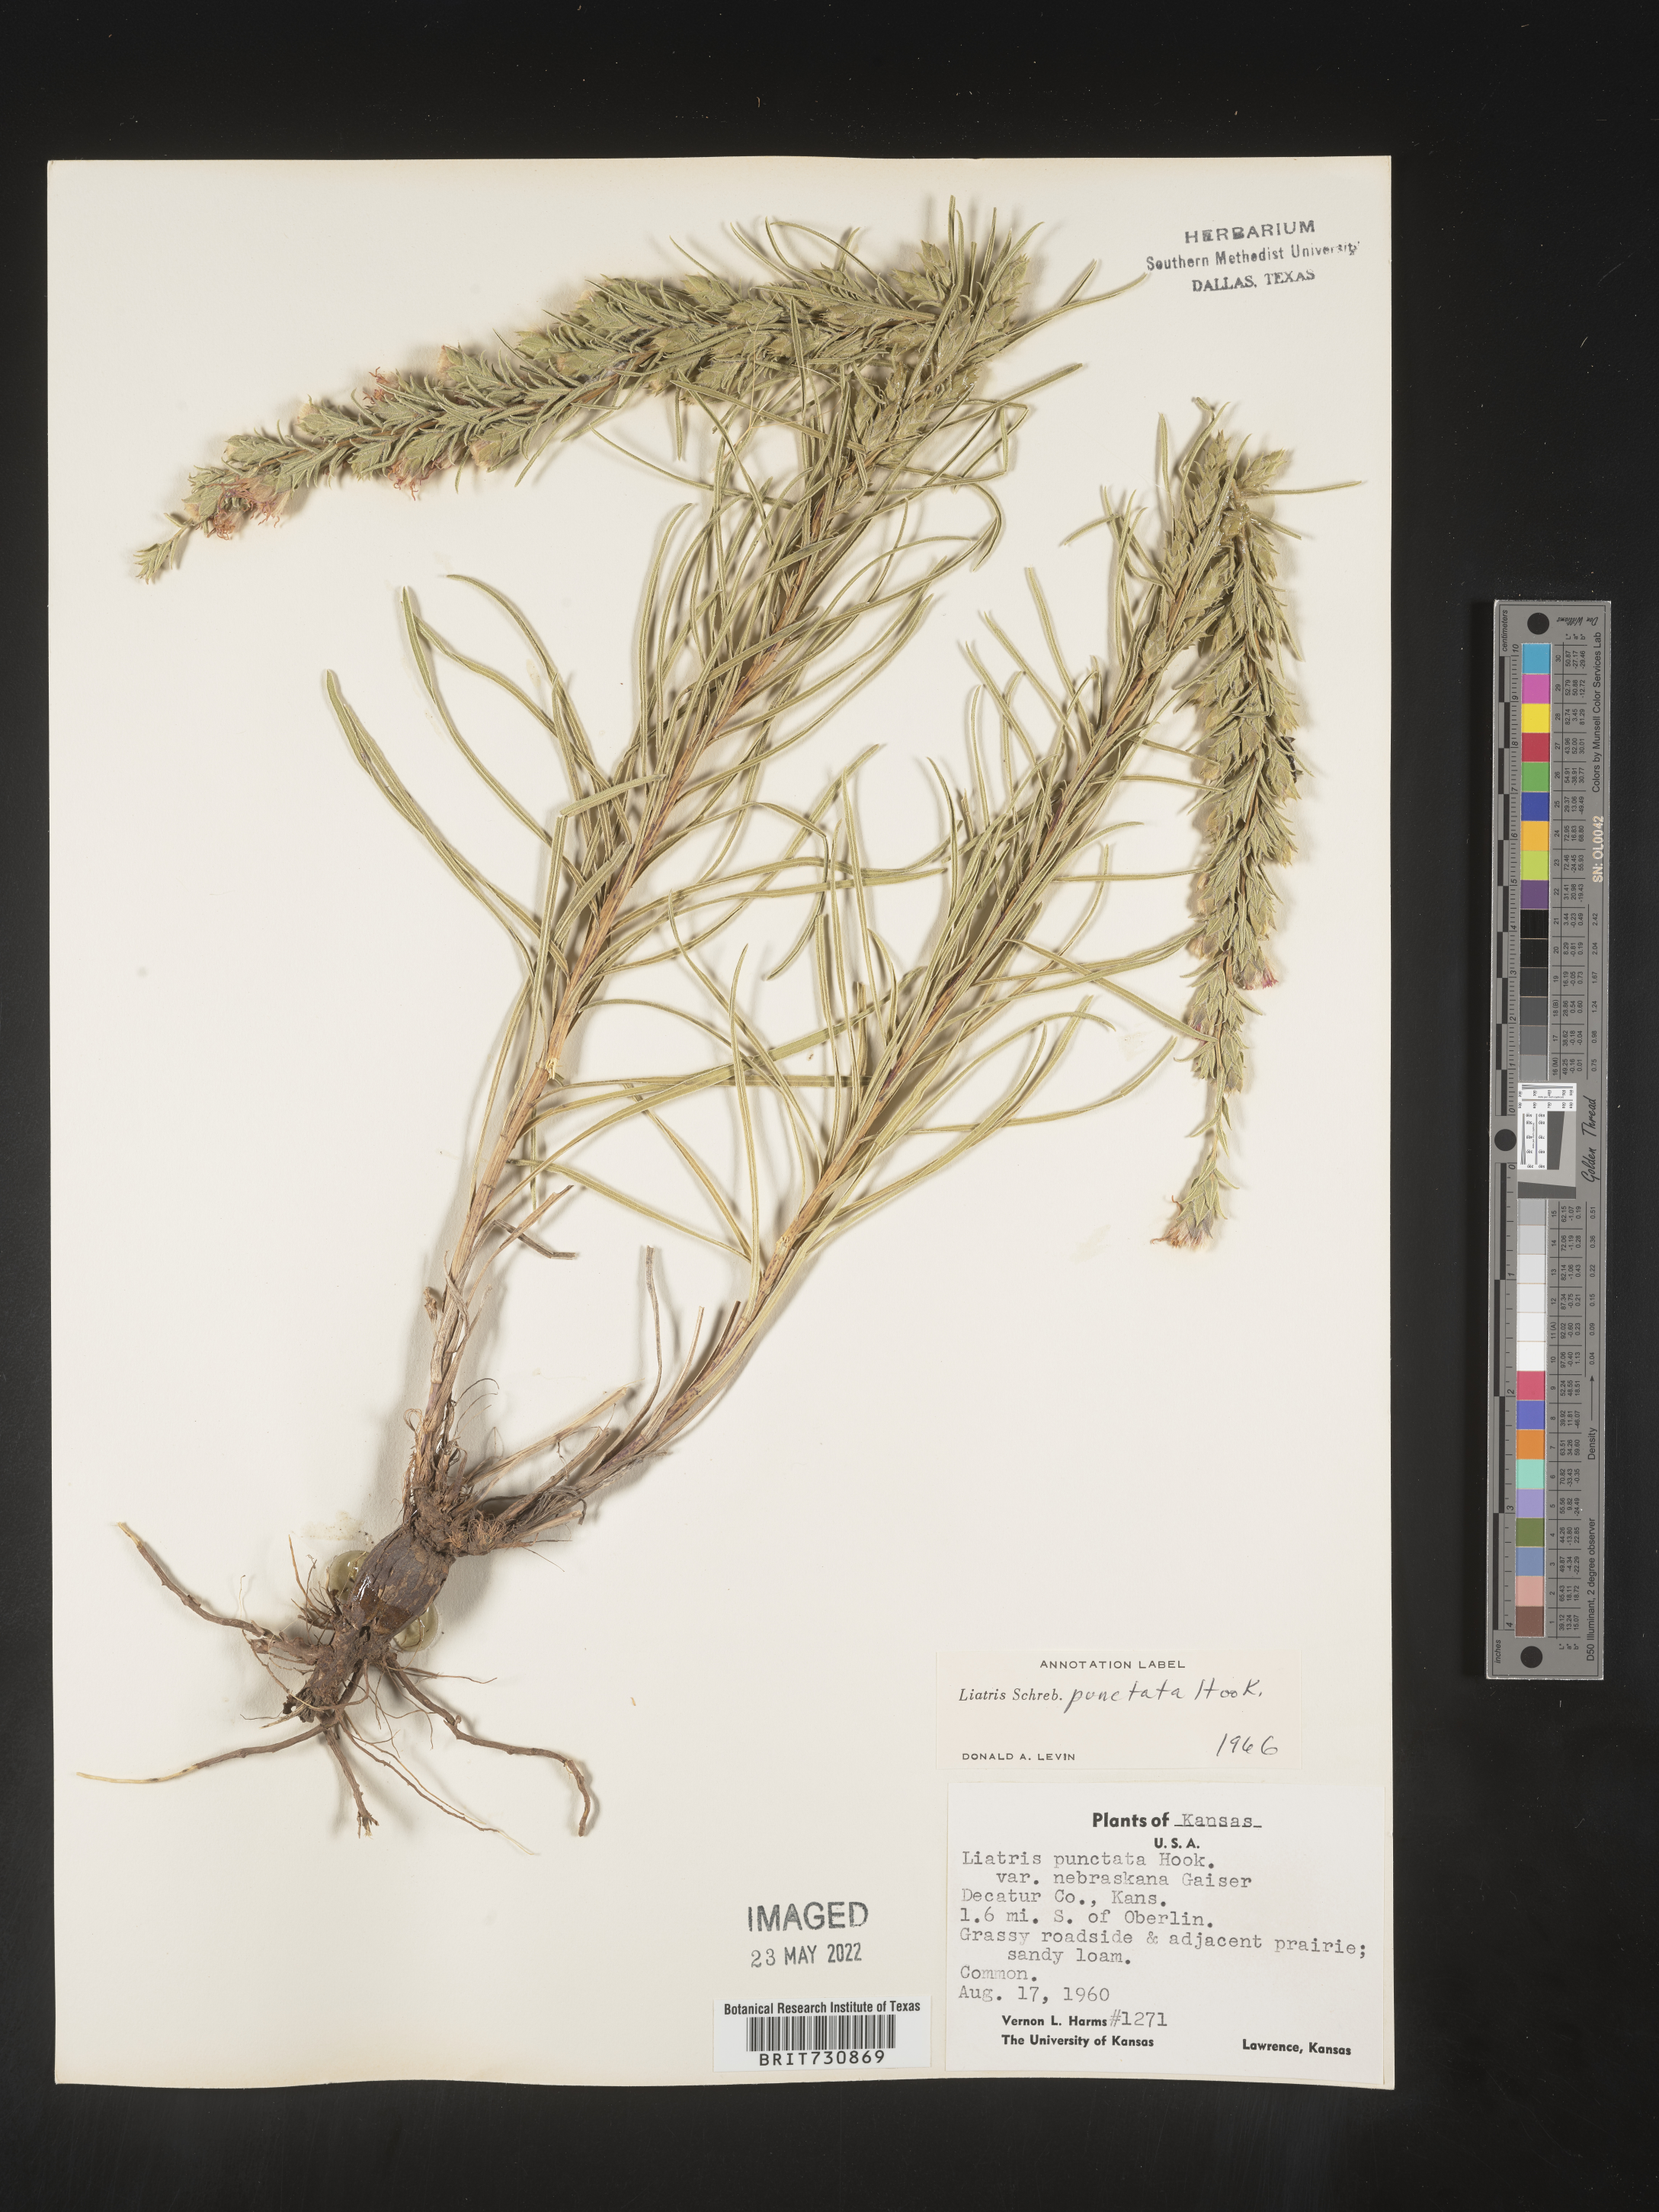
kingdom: Plantae
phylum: Tracheophyta
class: Magnoliopsida
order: Asterales
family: Asteraceae
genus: Liatris
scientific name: Liatris punctata
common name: Dotted gayfeather
